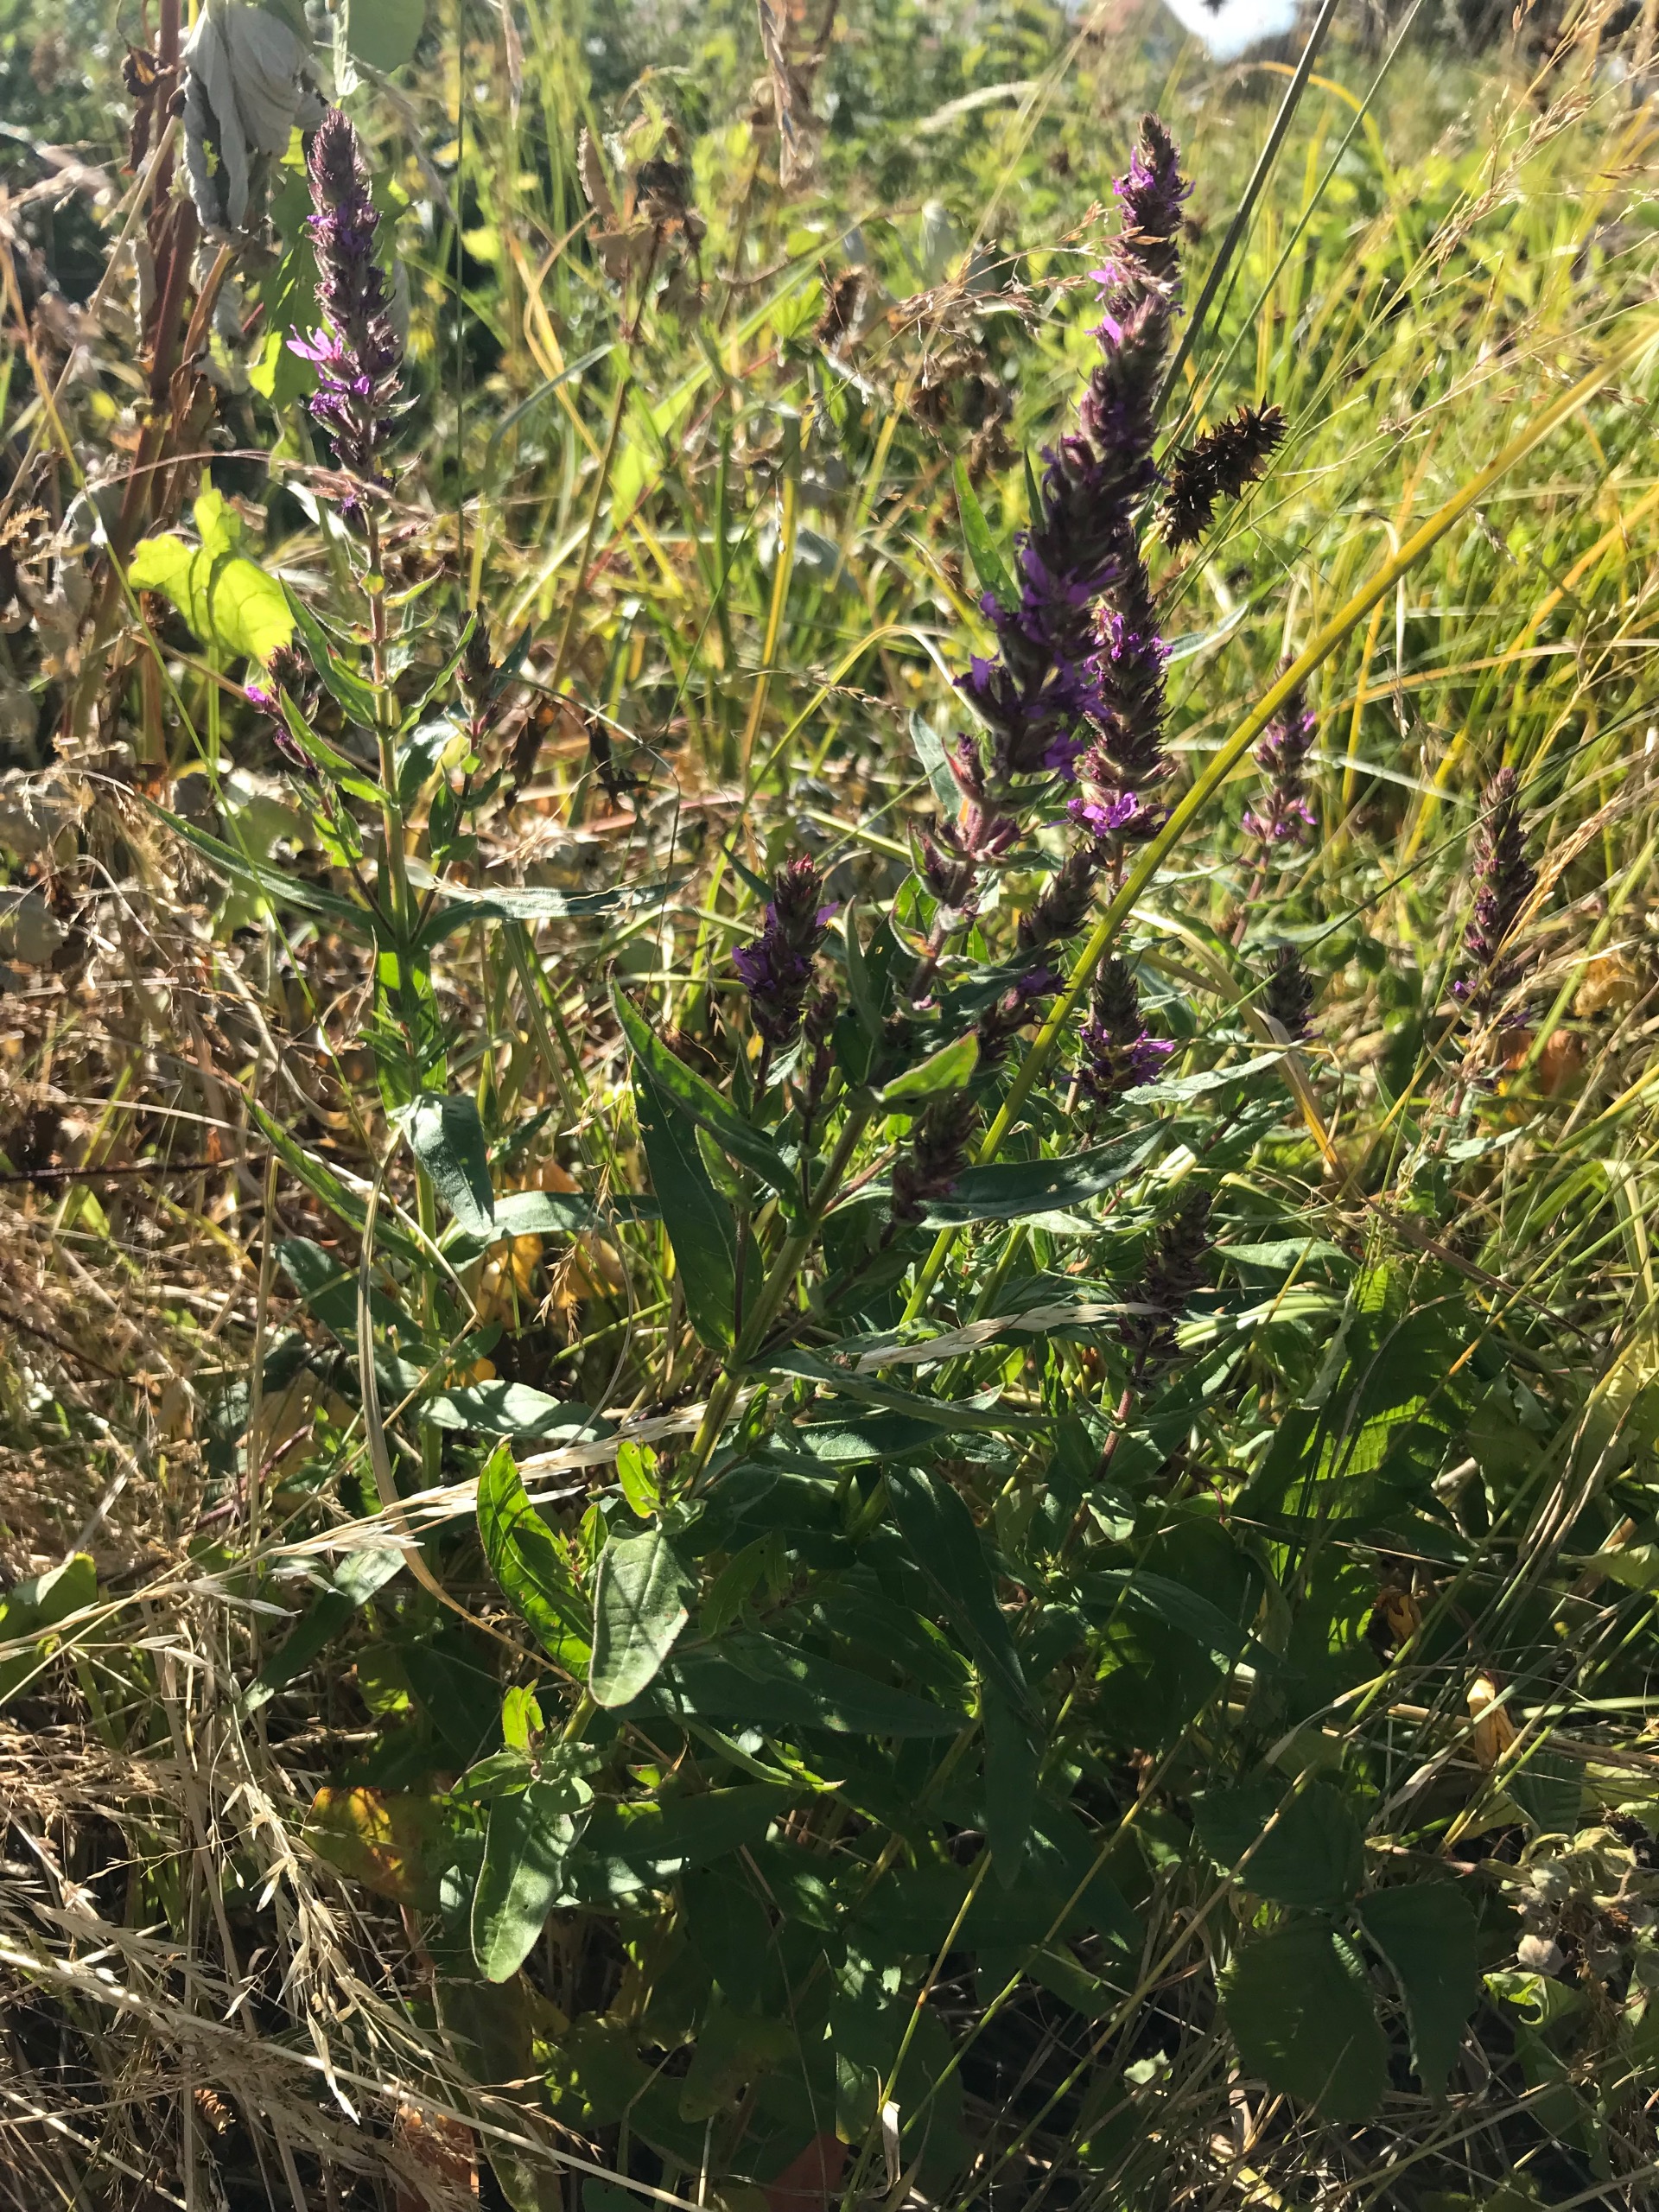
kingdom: Plantae
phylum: Tracheophyta
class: Magnoliopsida
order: Myrtales
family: Lythraceae
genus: Lythrum
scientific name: Lythrum salicaria
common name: Kattehale
